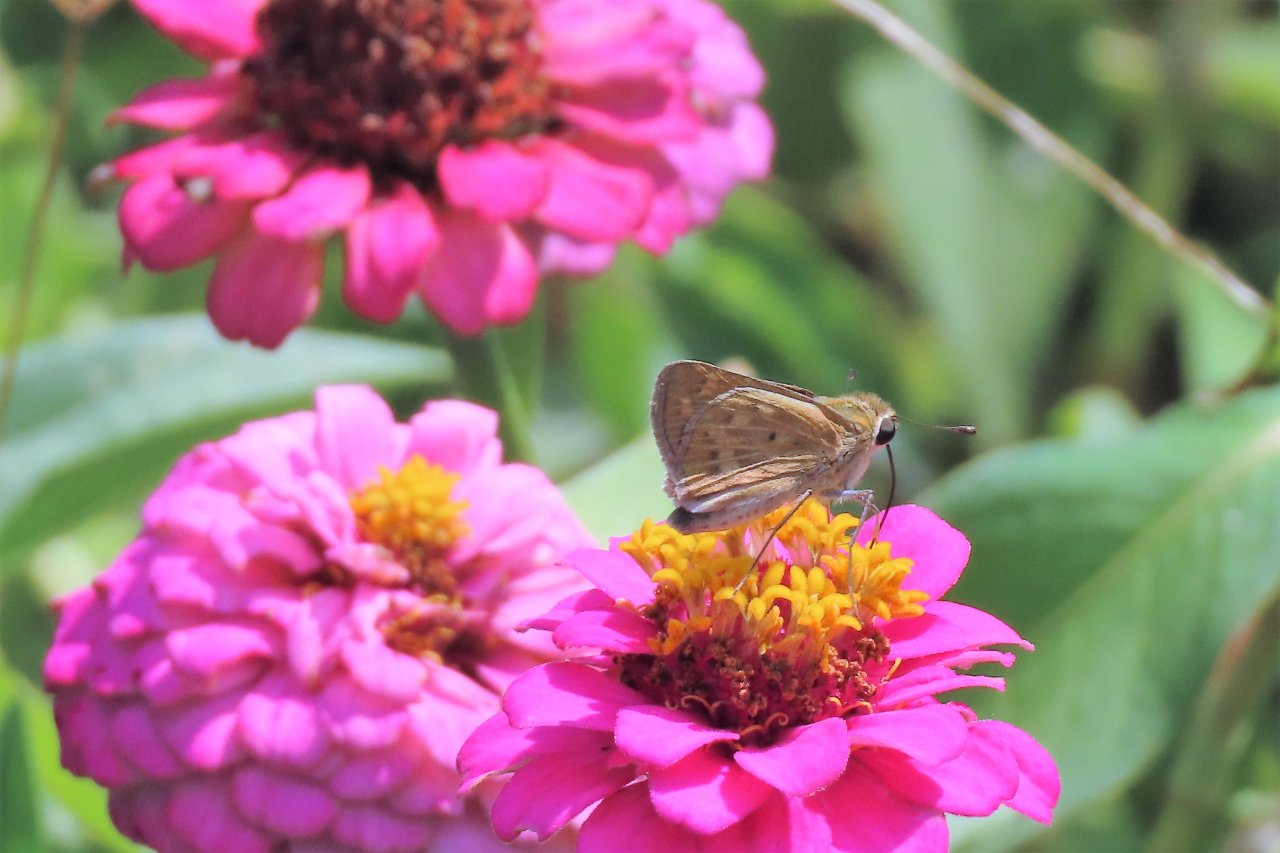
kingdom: Animalia
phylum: Arthropoda
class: Insecta
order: Lepidoptera
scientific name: Lepidoptera
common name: Butterflies
